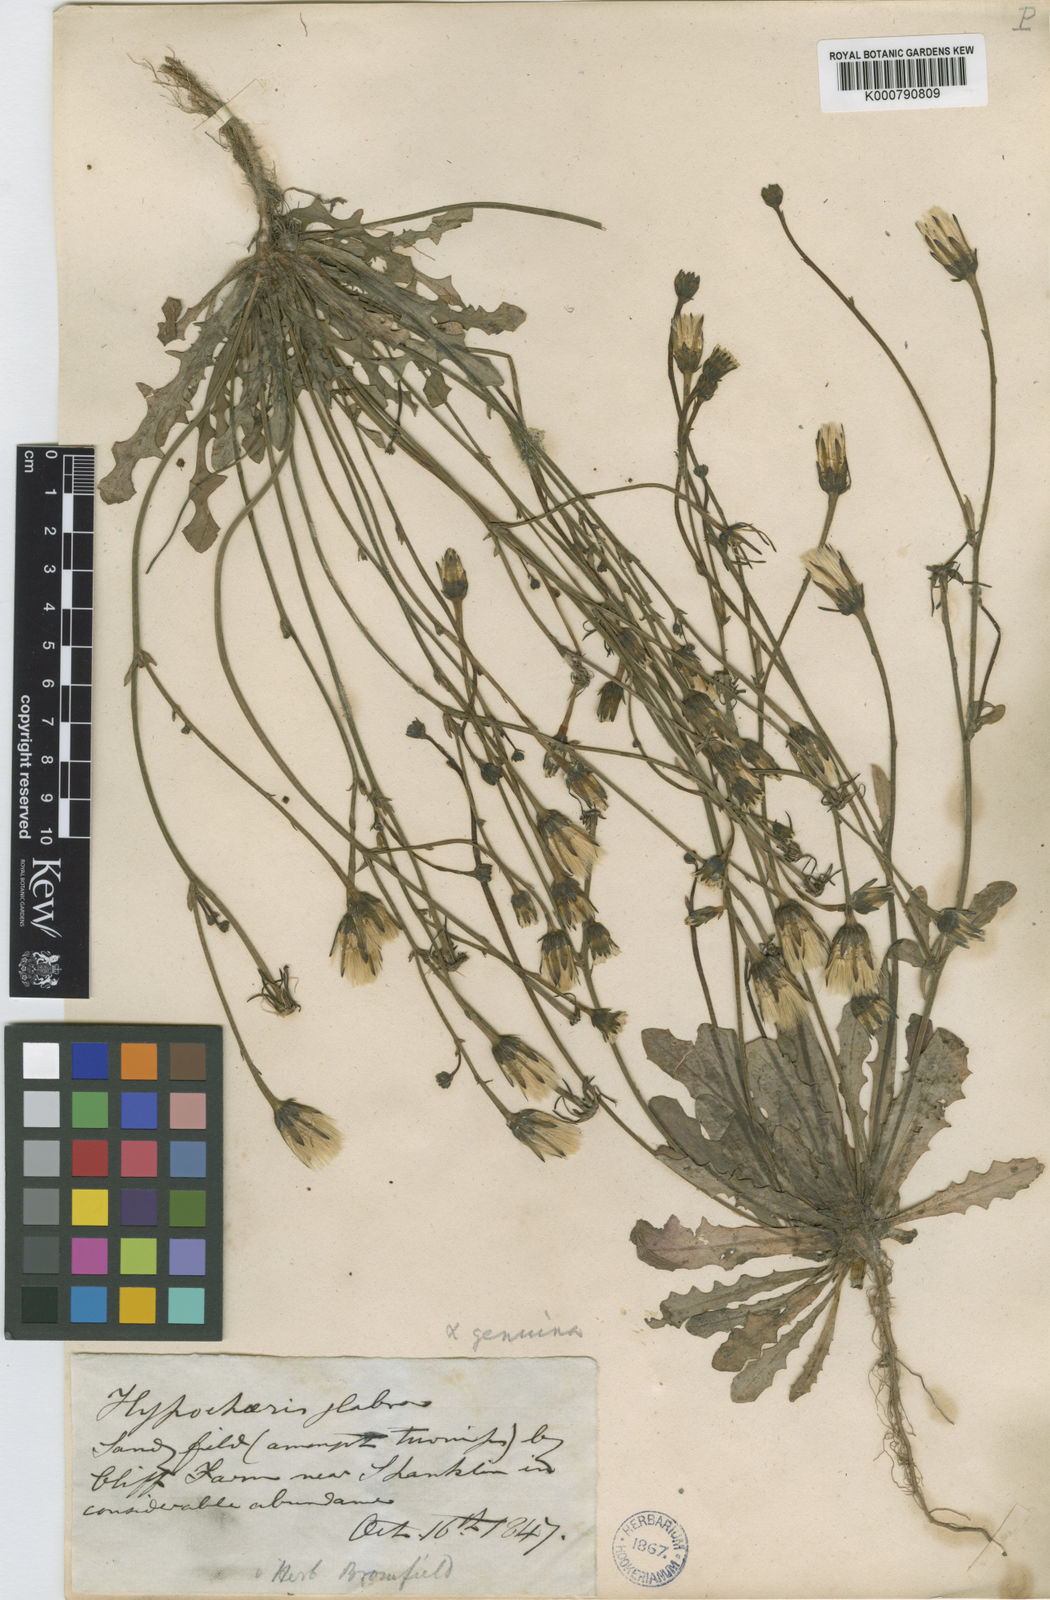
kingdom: Plantae
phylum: Tracheophyta
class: Magnoliopsida
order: Asterales
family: Asteraceae
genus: Hypochaeris
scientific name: Hypochaeris glabra
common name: Smooth catsear
